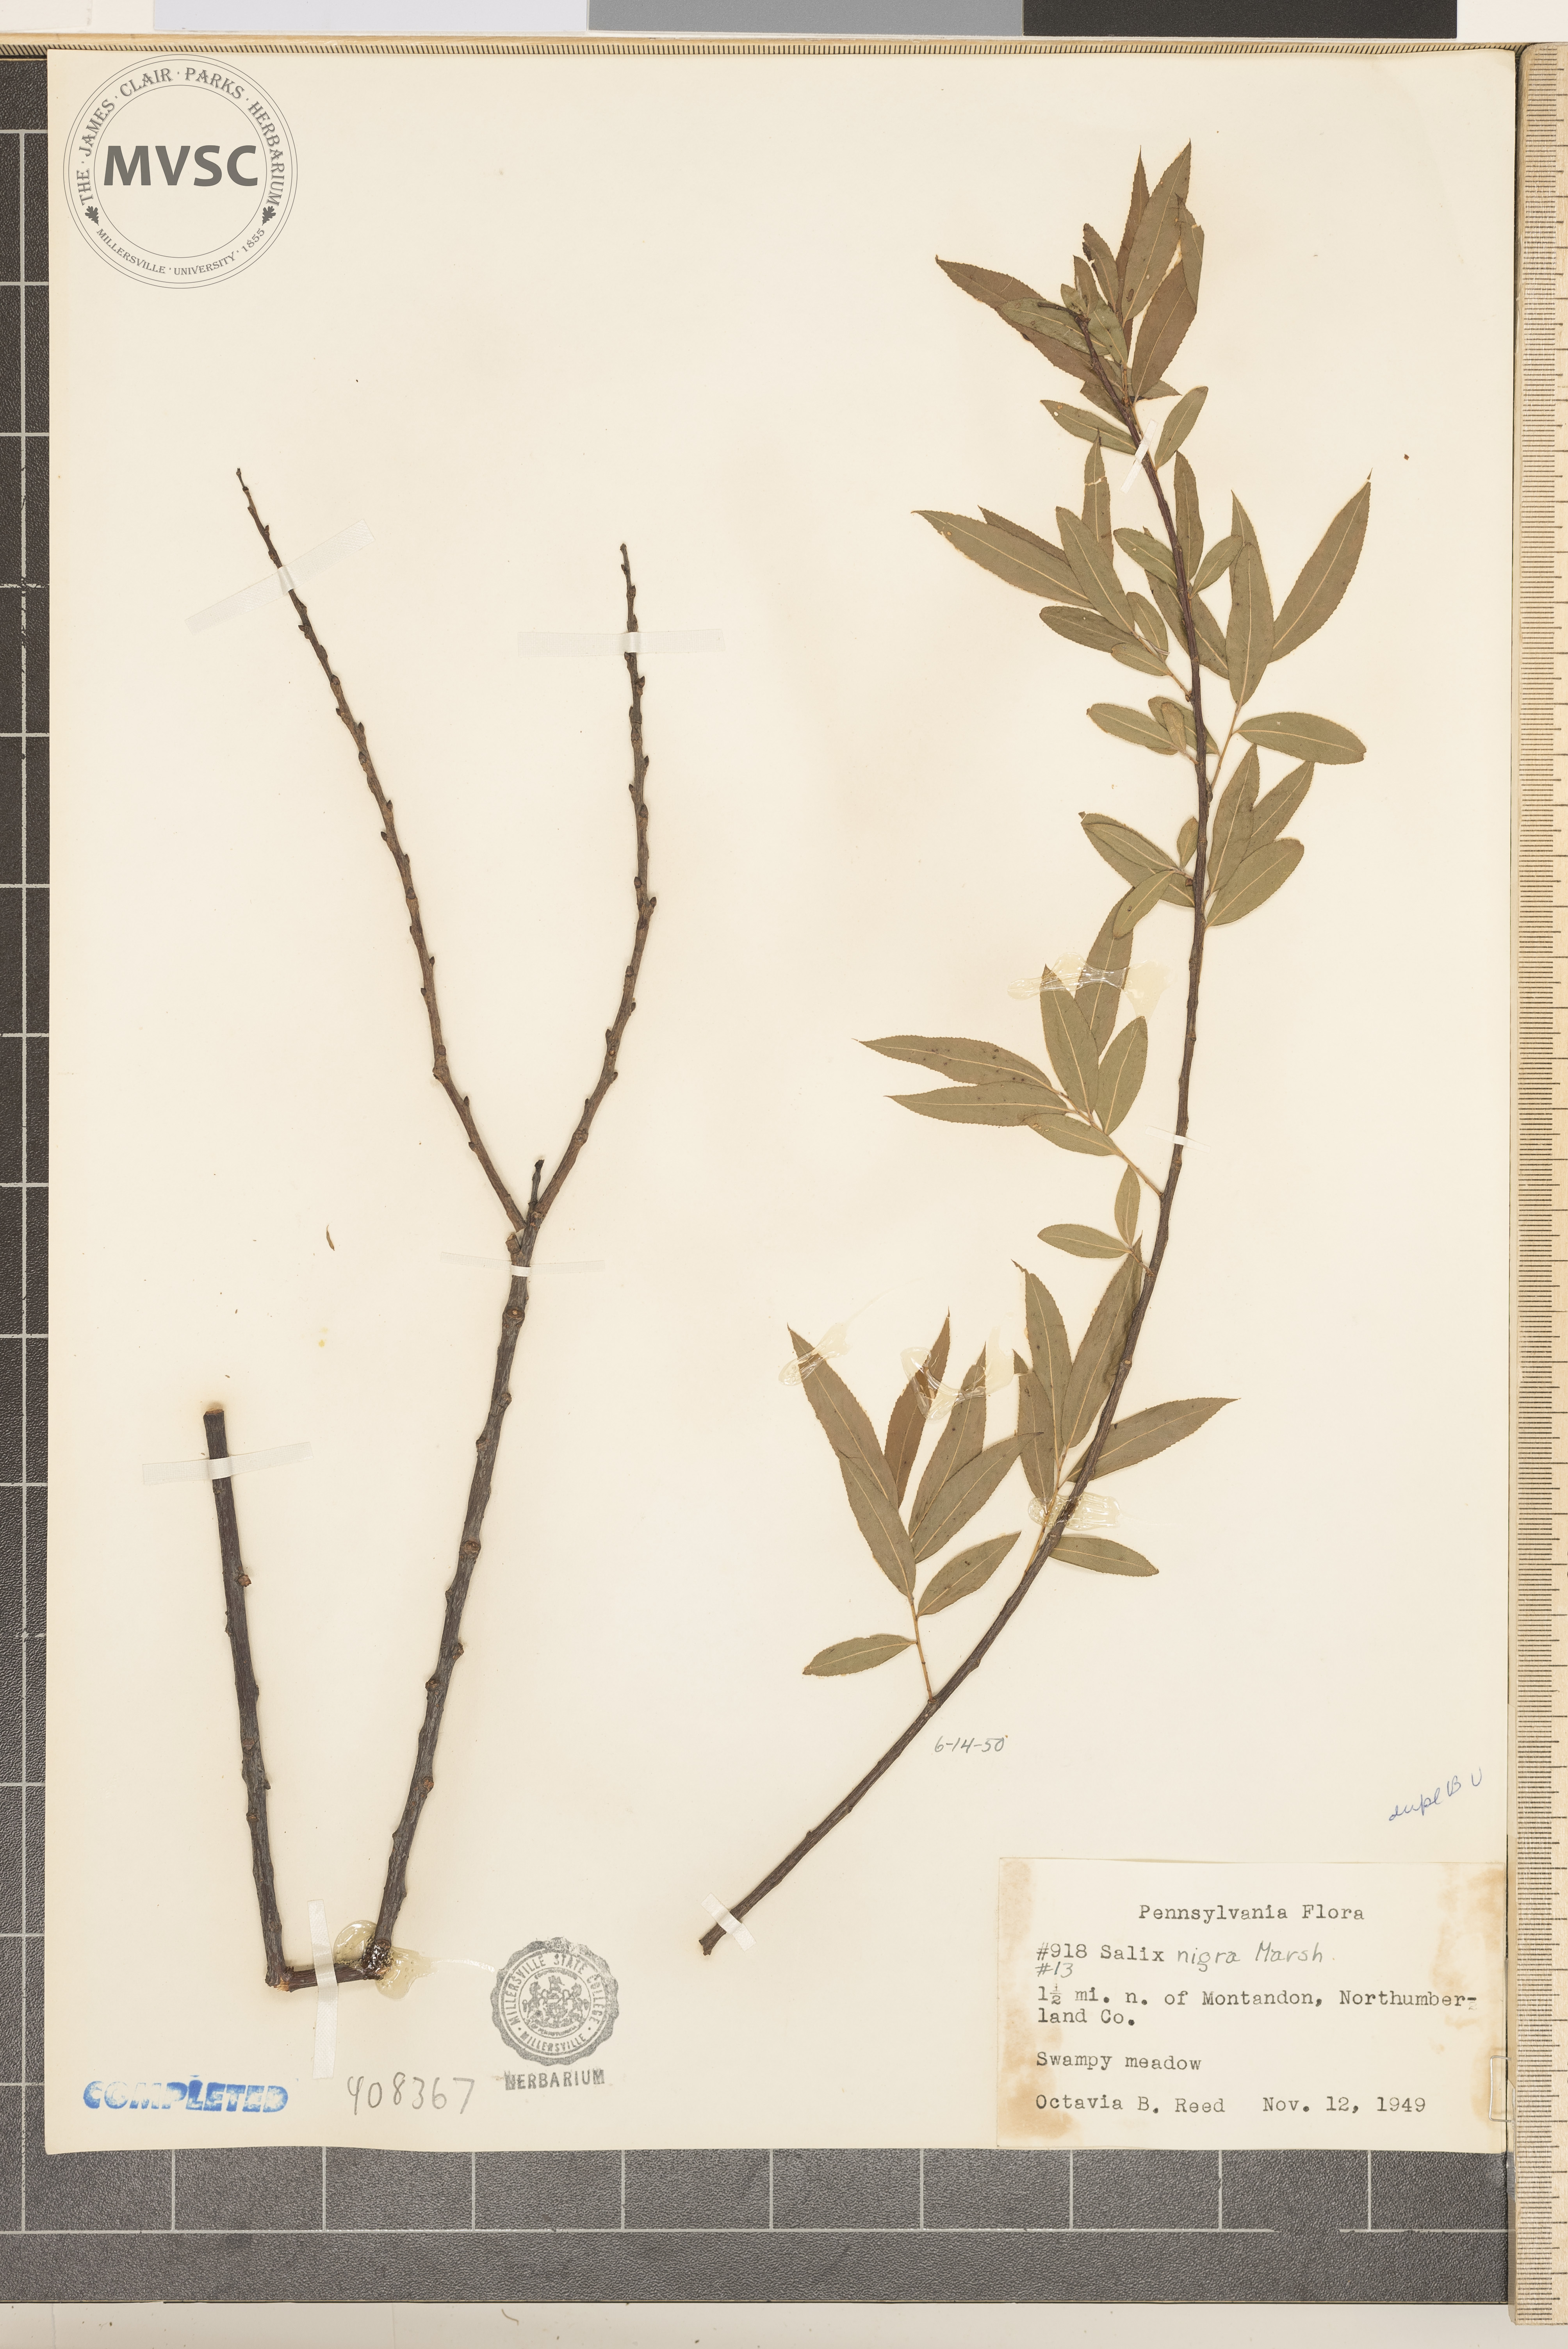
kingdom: Plantae
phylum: Tracheophyta
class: Magnoliopsida
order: Malpighiales
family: Salicaceae
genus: Salix
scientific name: Salix nigra
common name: Black willow
